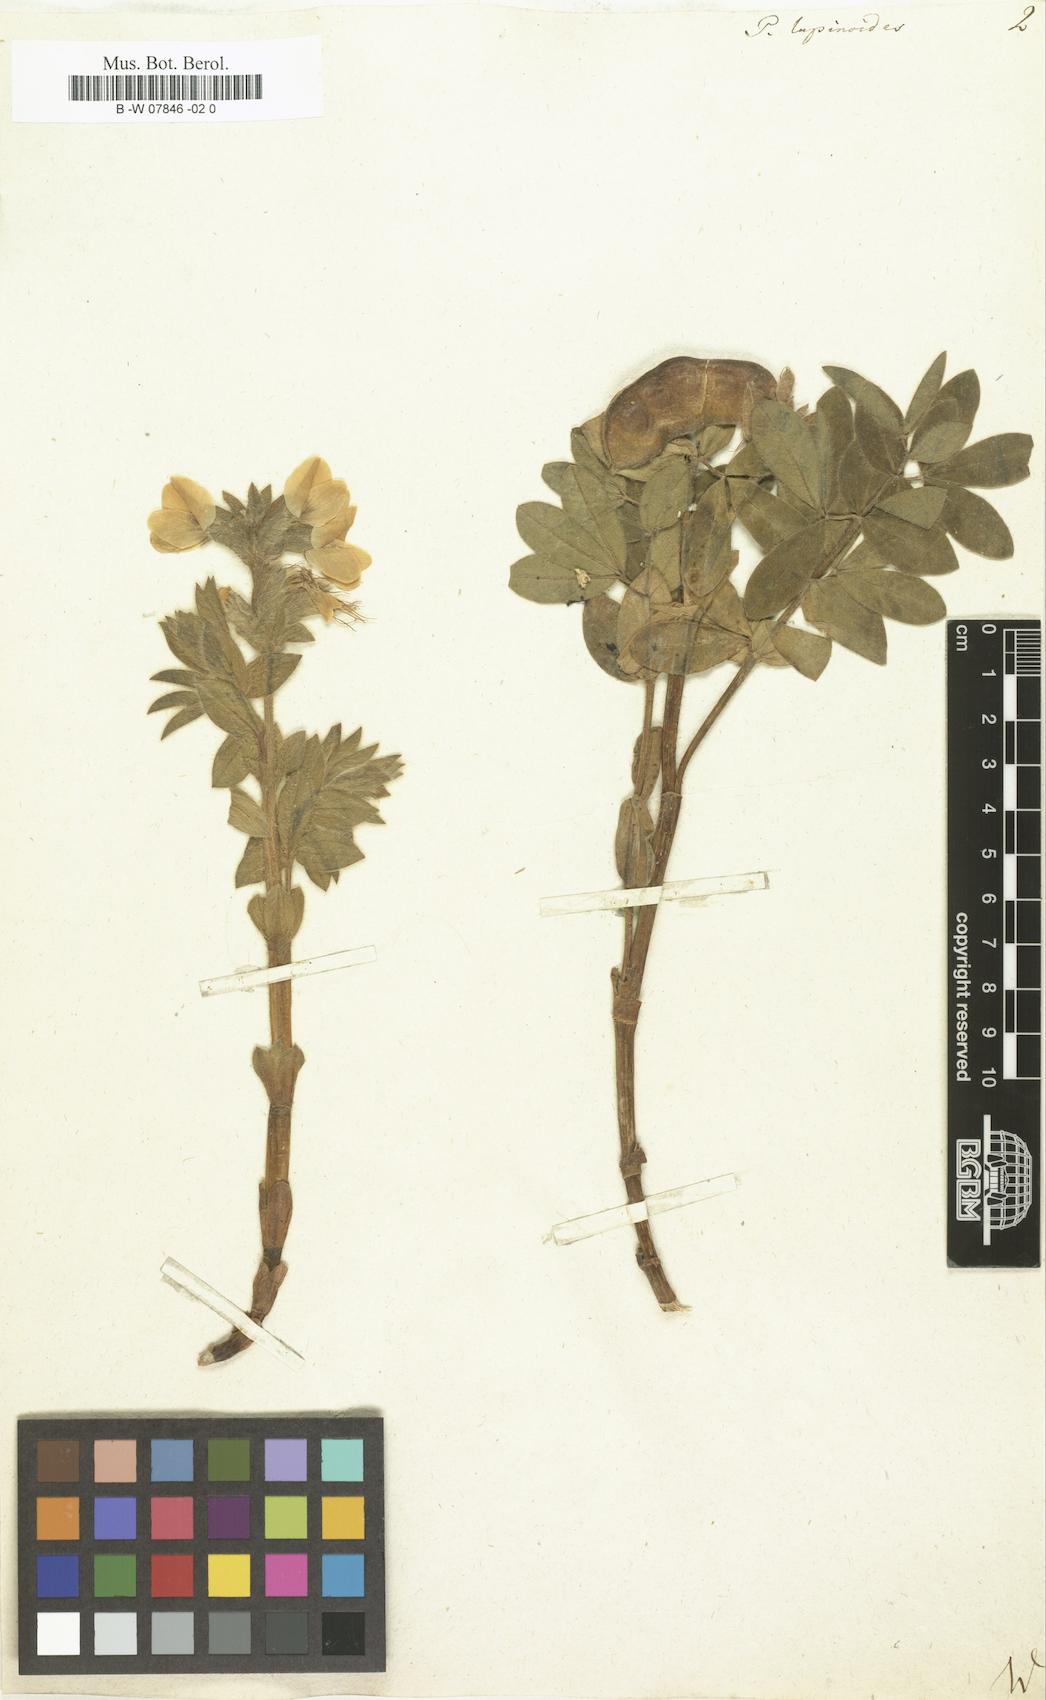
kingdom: Plantae
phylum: Tracheophyta
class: Magnoliopsida
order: Fabales
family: Fabaceae
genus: Thermopsis
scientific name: Thermopsis lanceolata
